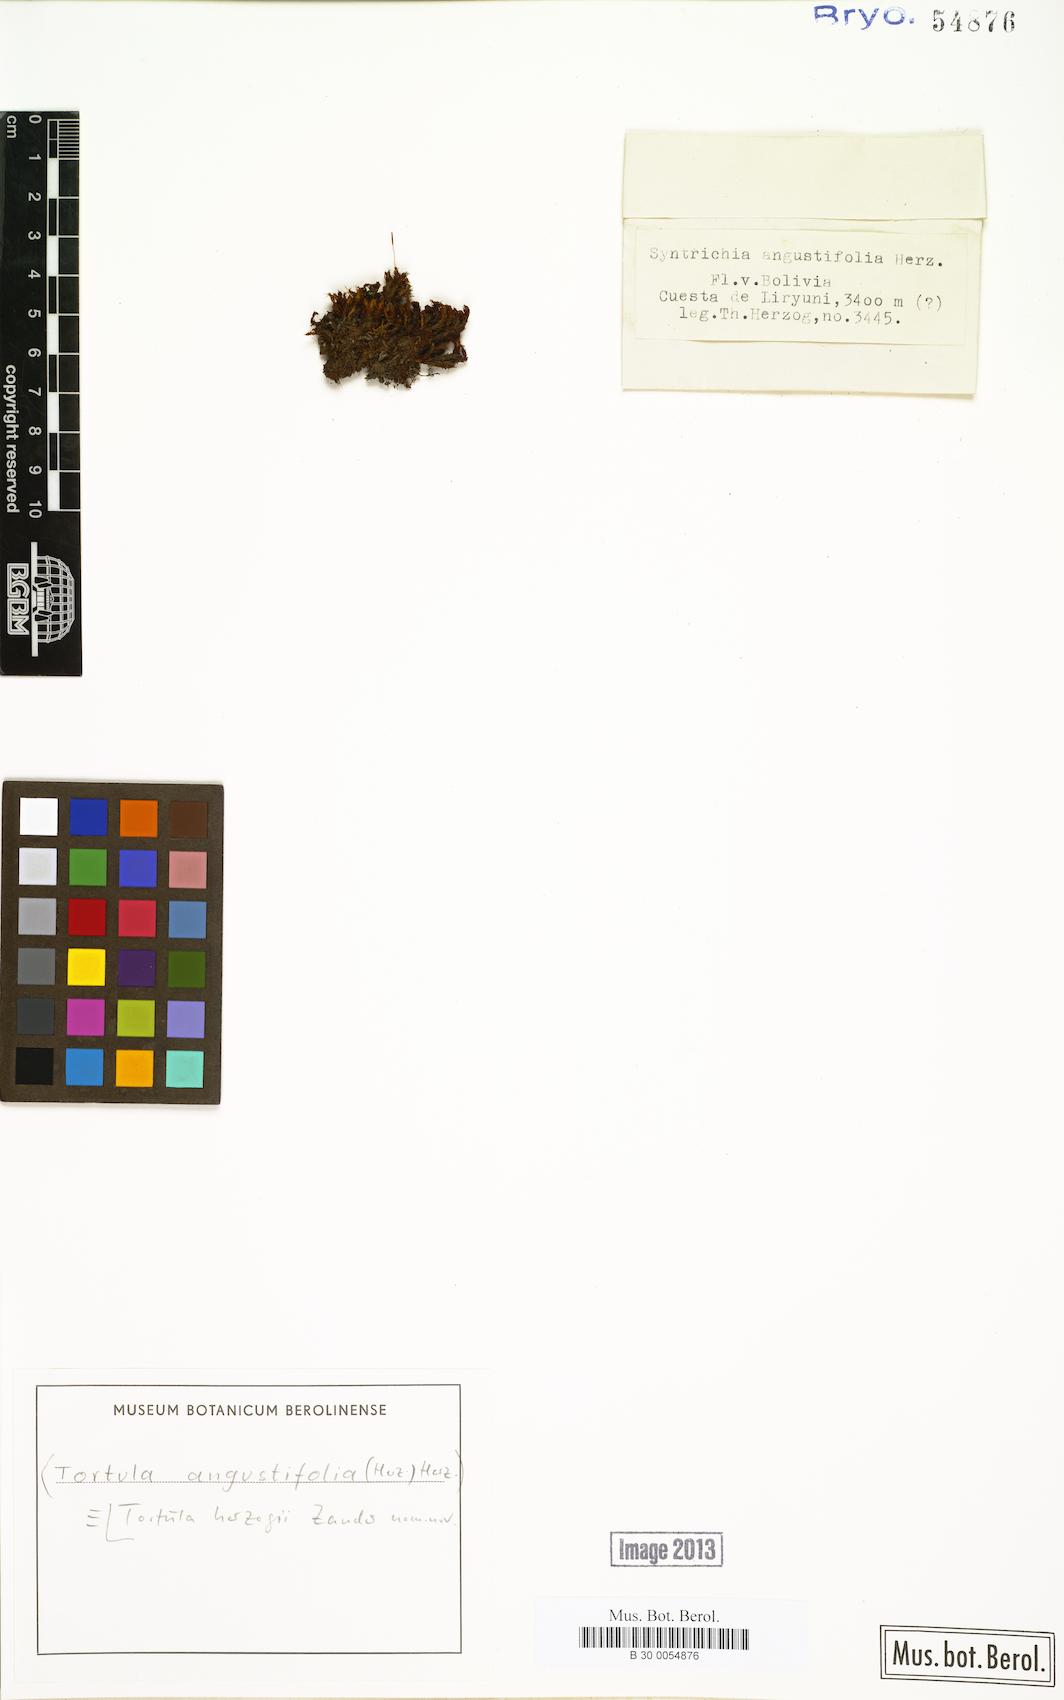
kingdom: Plantae
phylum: Bryophyta
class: Bryopsida
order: Pottiales
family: Pottiaceae
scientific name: Pottiaceae
